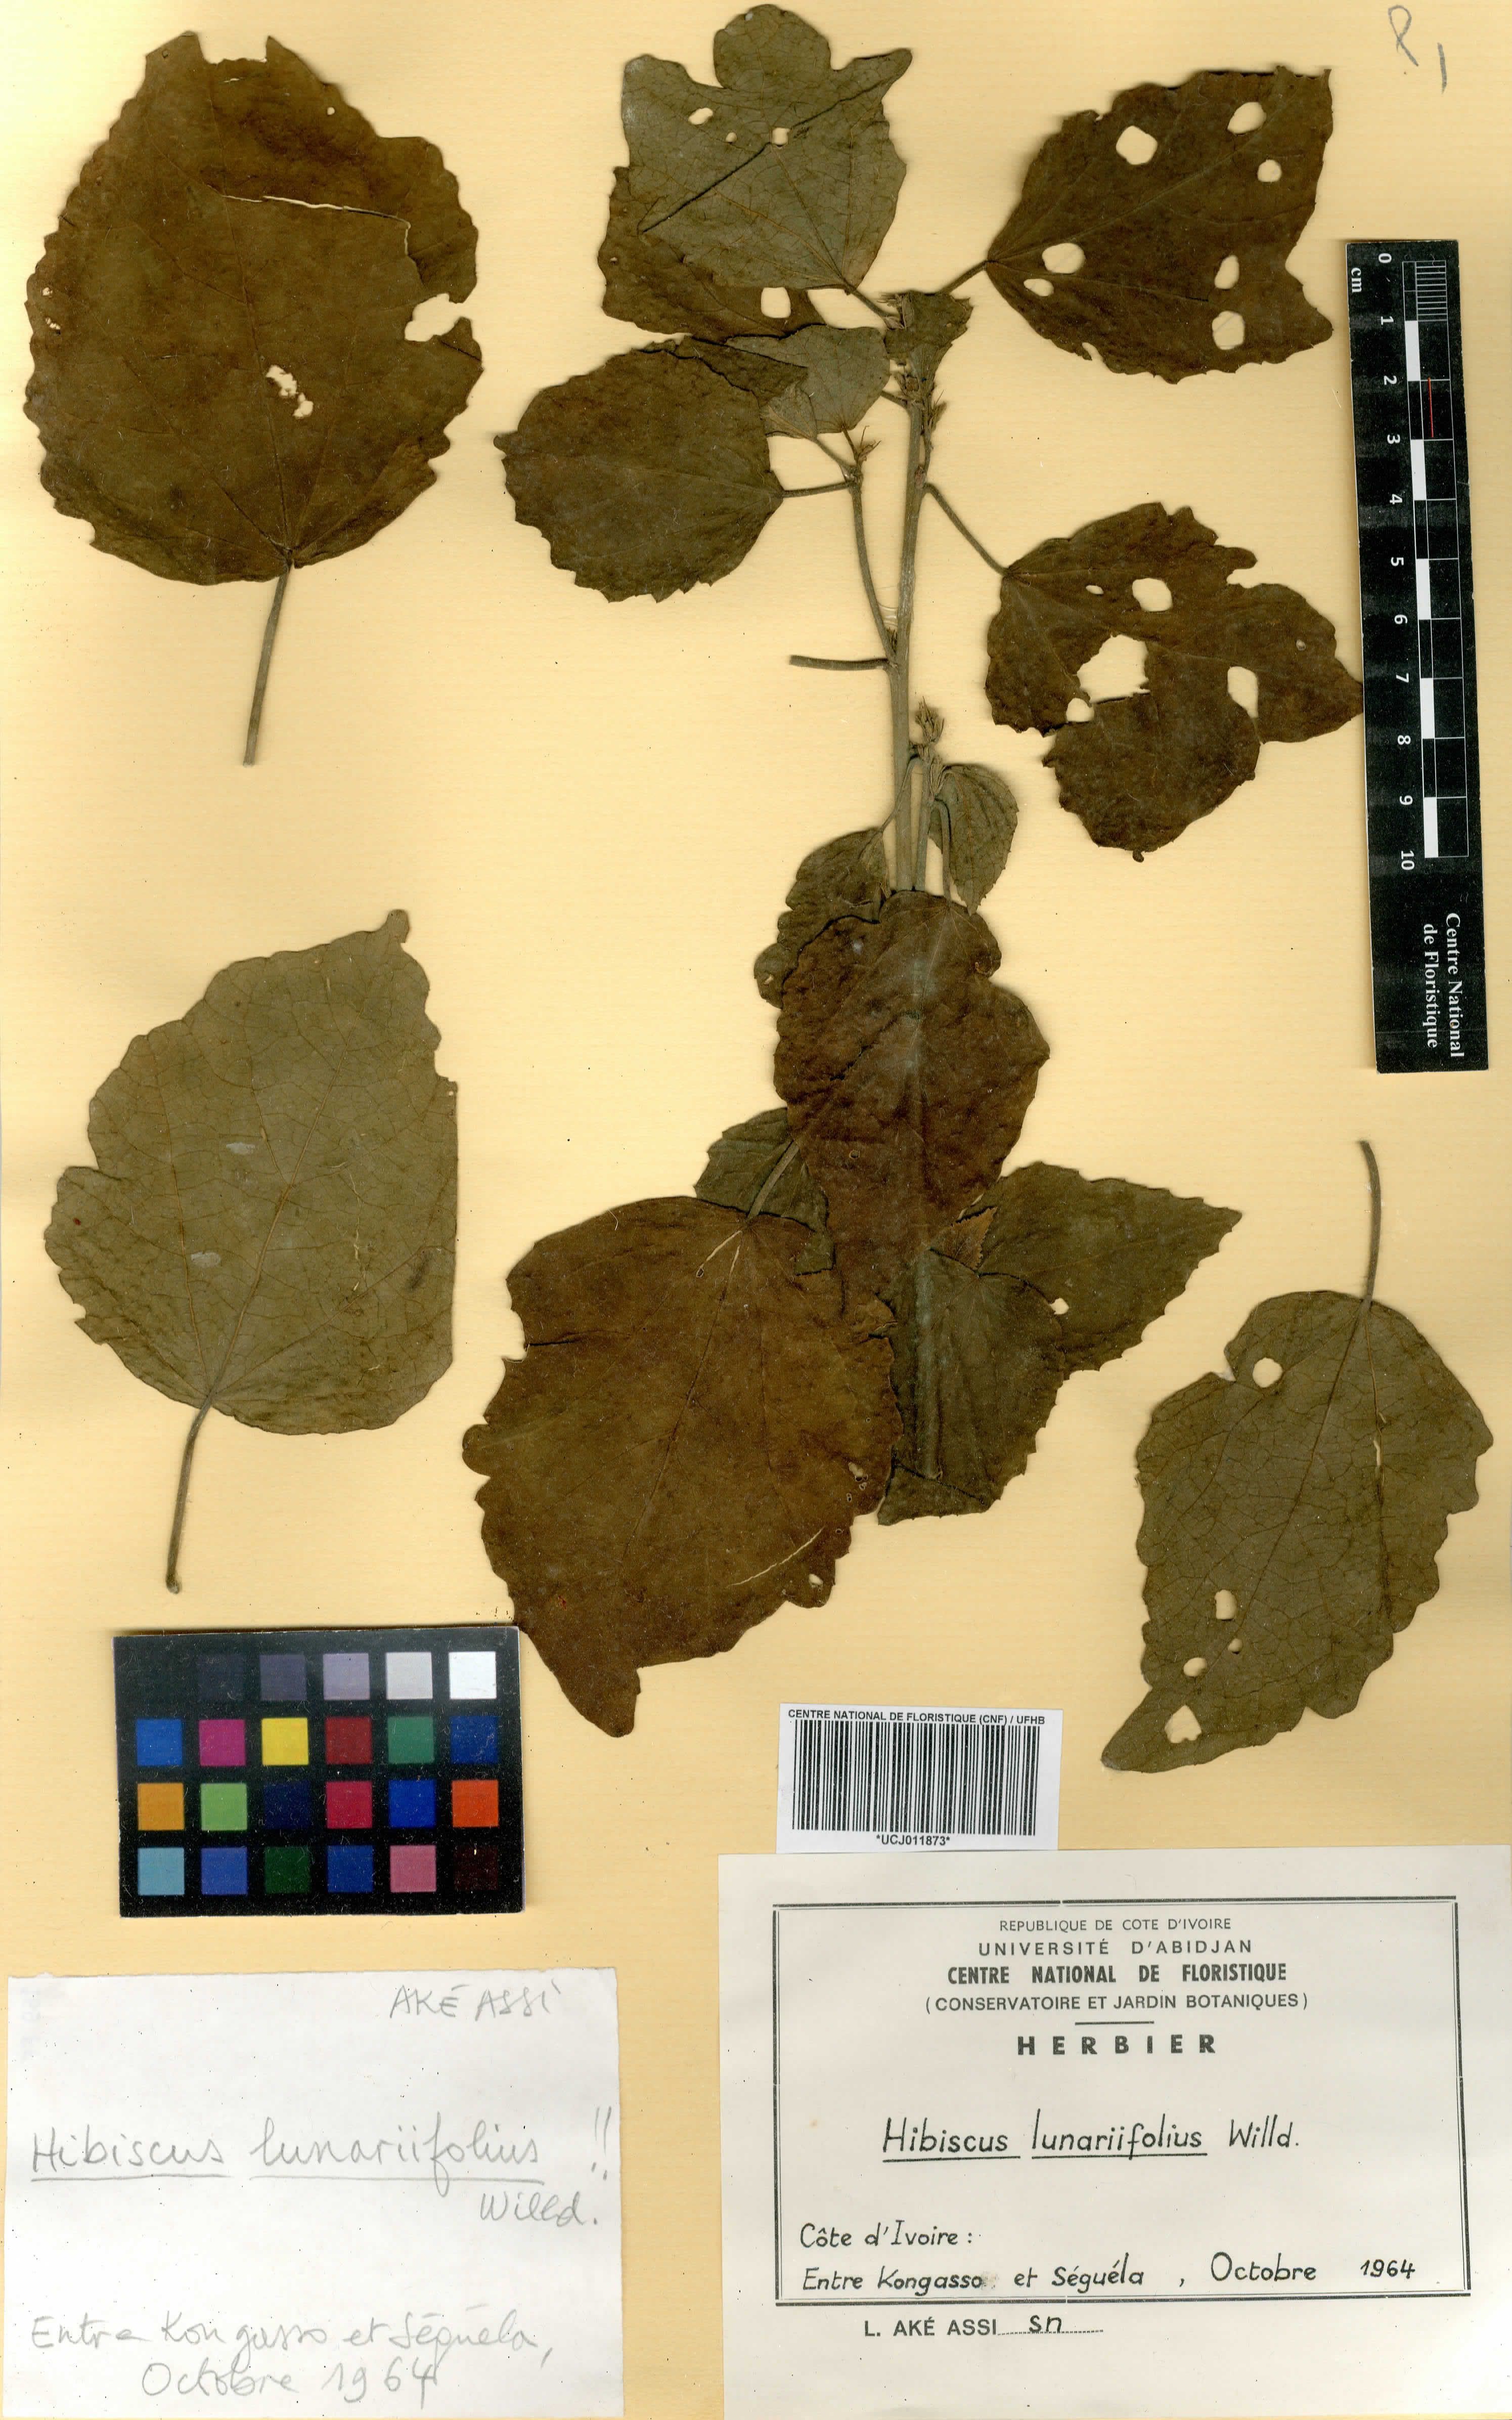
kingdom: Plantae
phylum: Tracheophyta
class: Magnoliopsida
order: Malvales
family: Malvaceae
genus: Hibiscus
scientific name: Hibiscus lunariifolius
